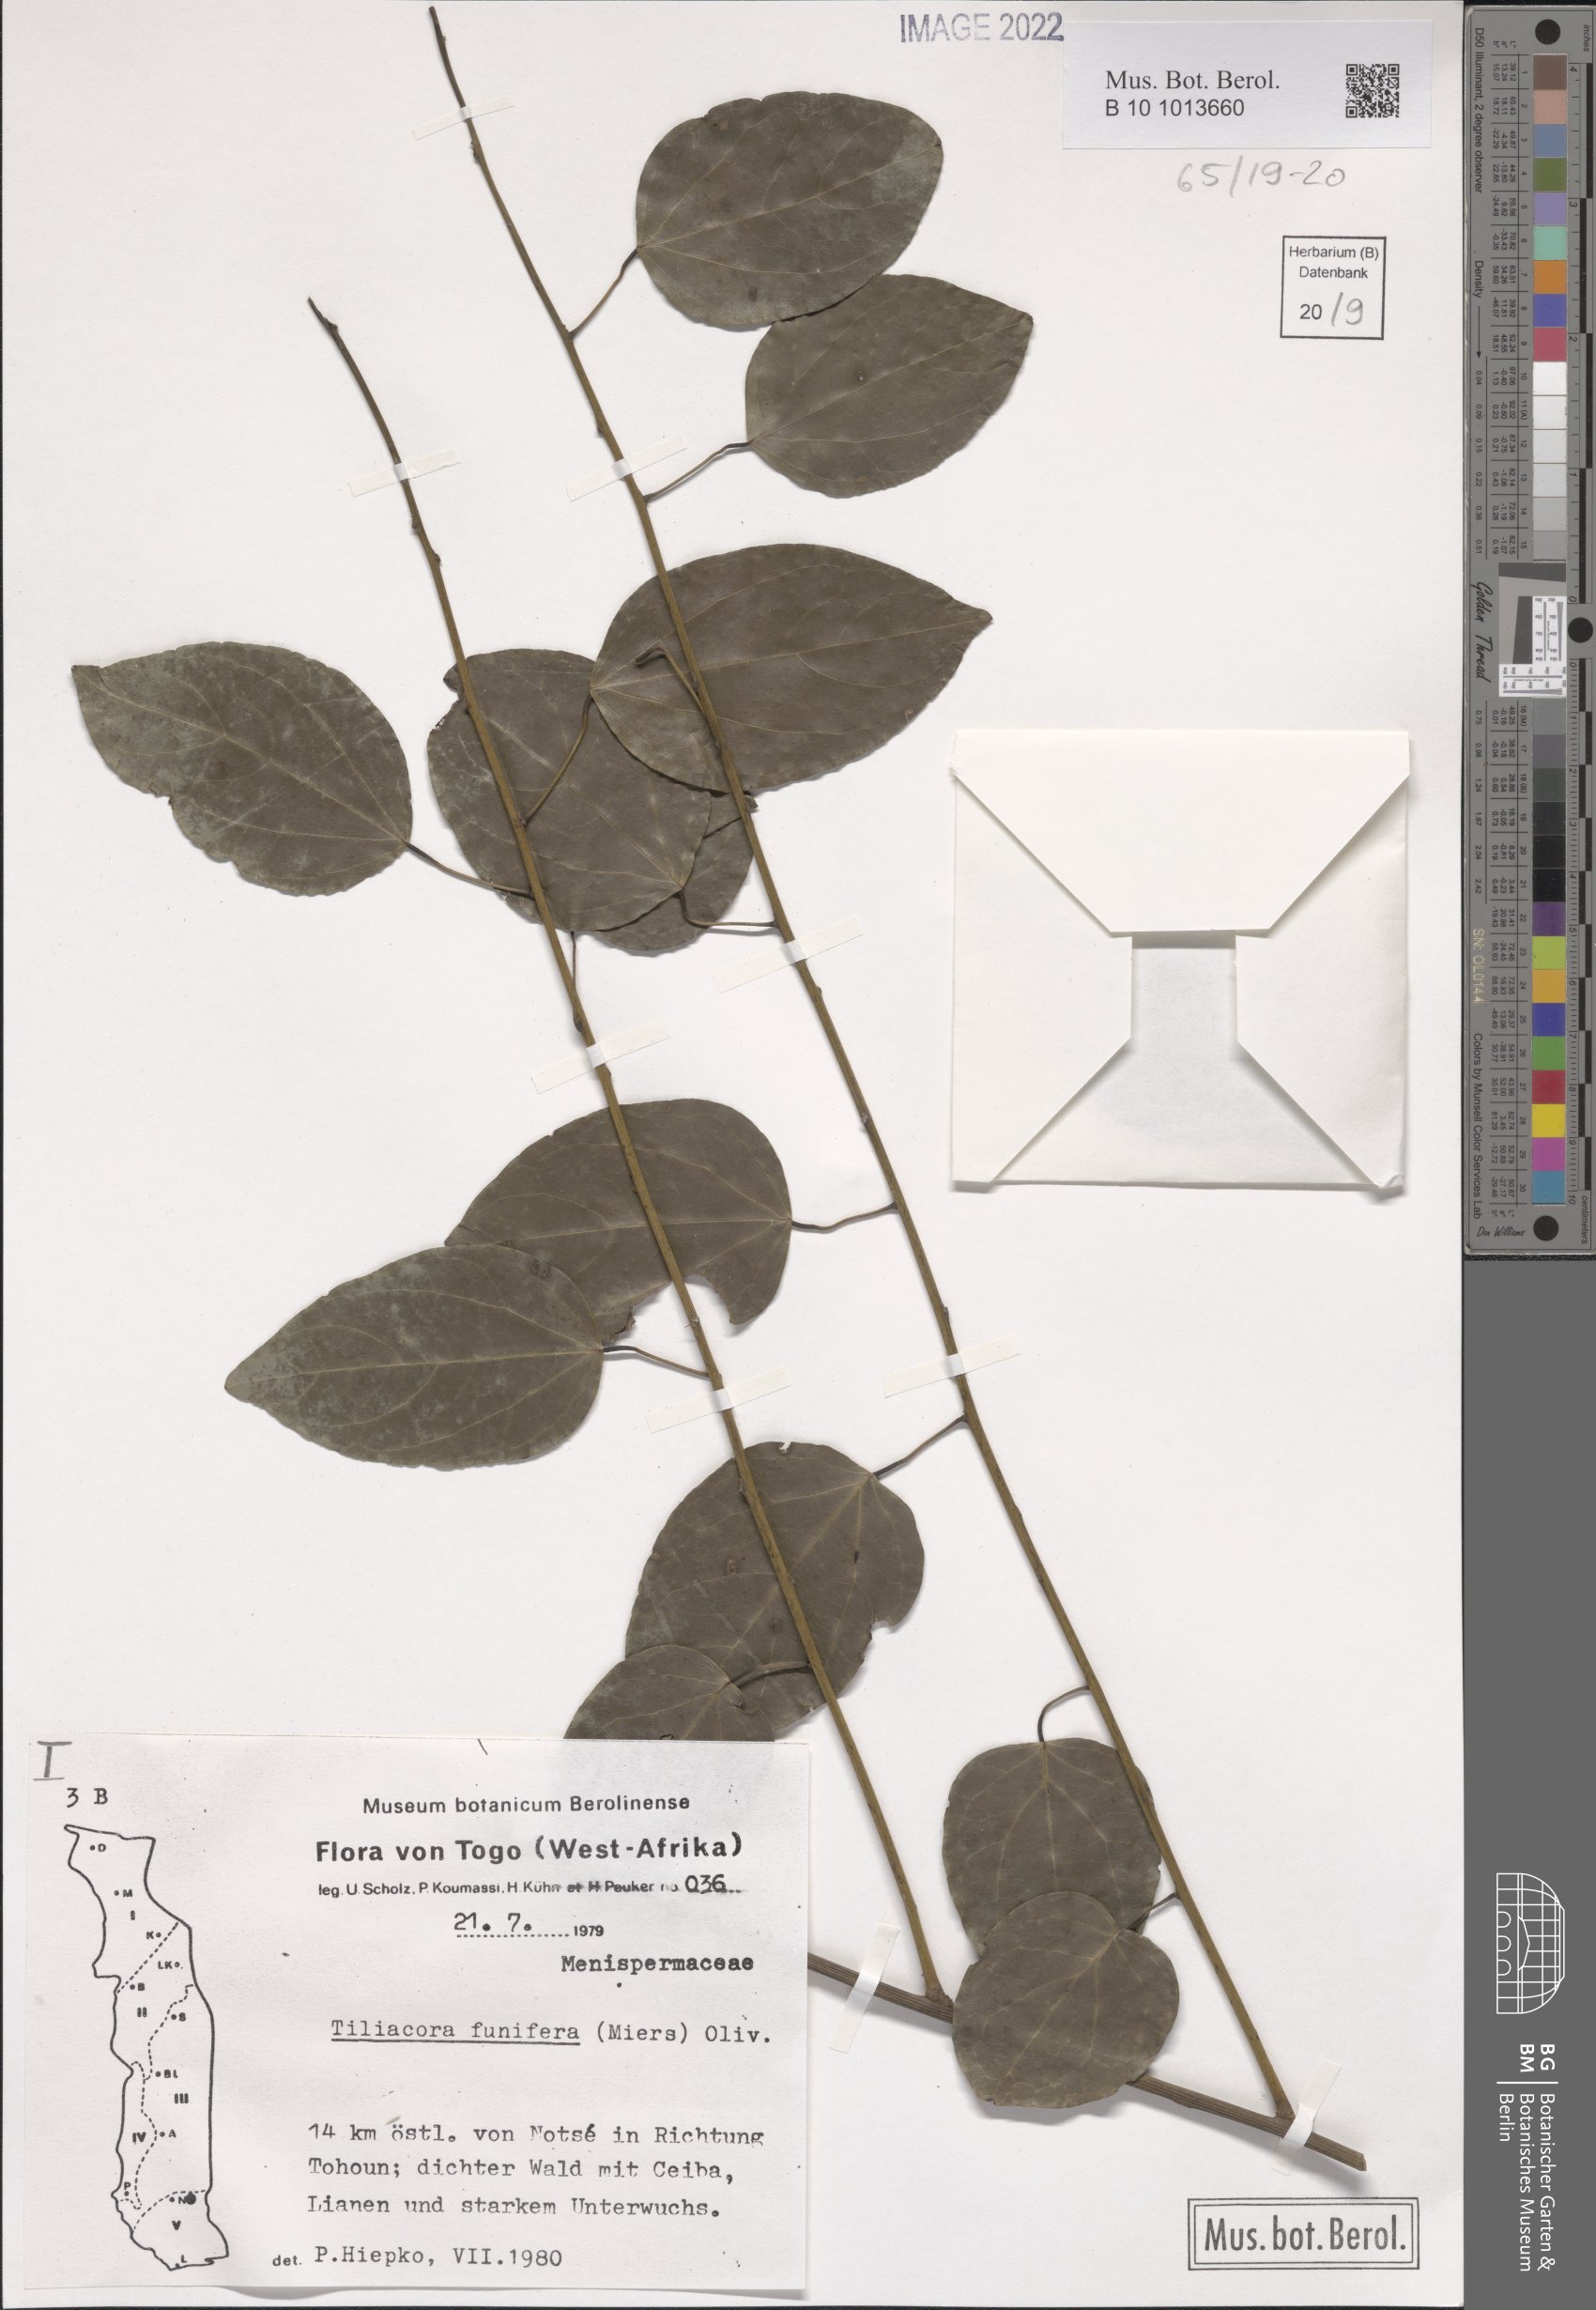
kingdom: Plantae
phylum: Tracheophyta
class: Magnoliopsida
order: Ranunculales
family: Menispermaceae
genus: Tiliacora
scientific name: Tiliacora funifera
